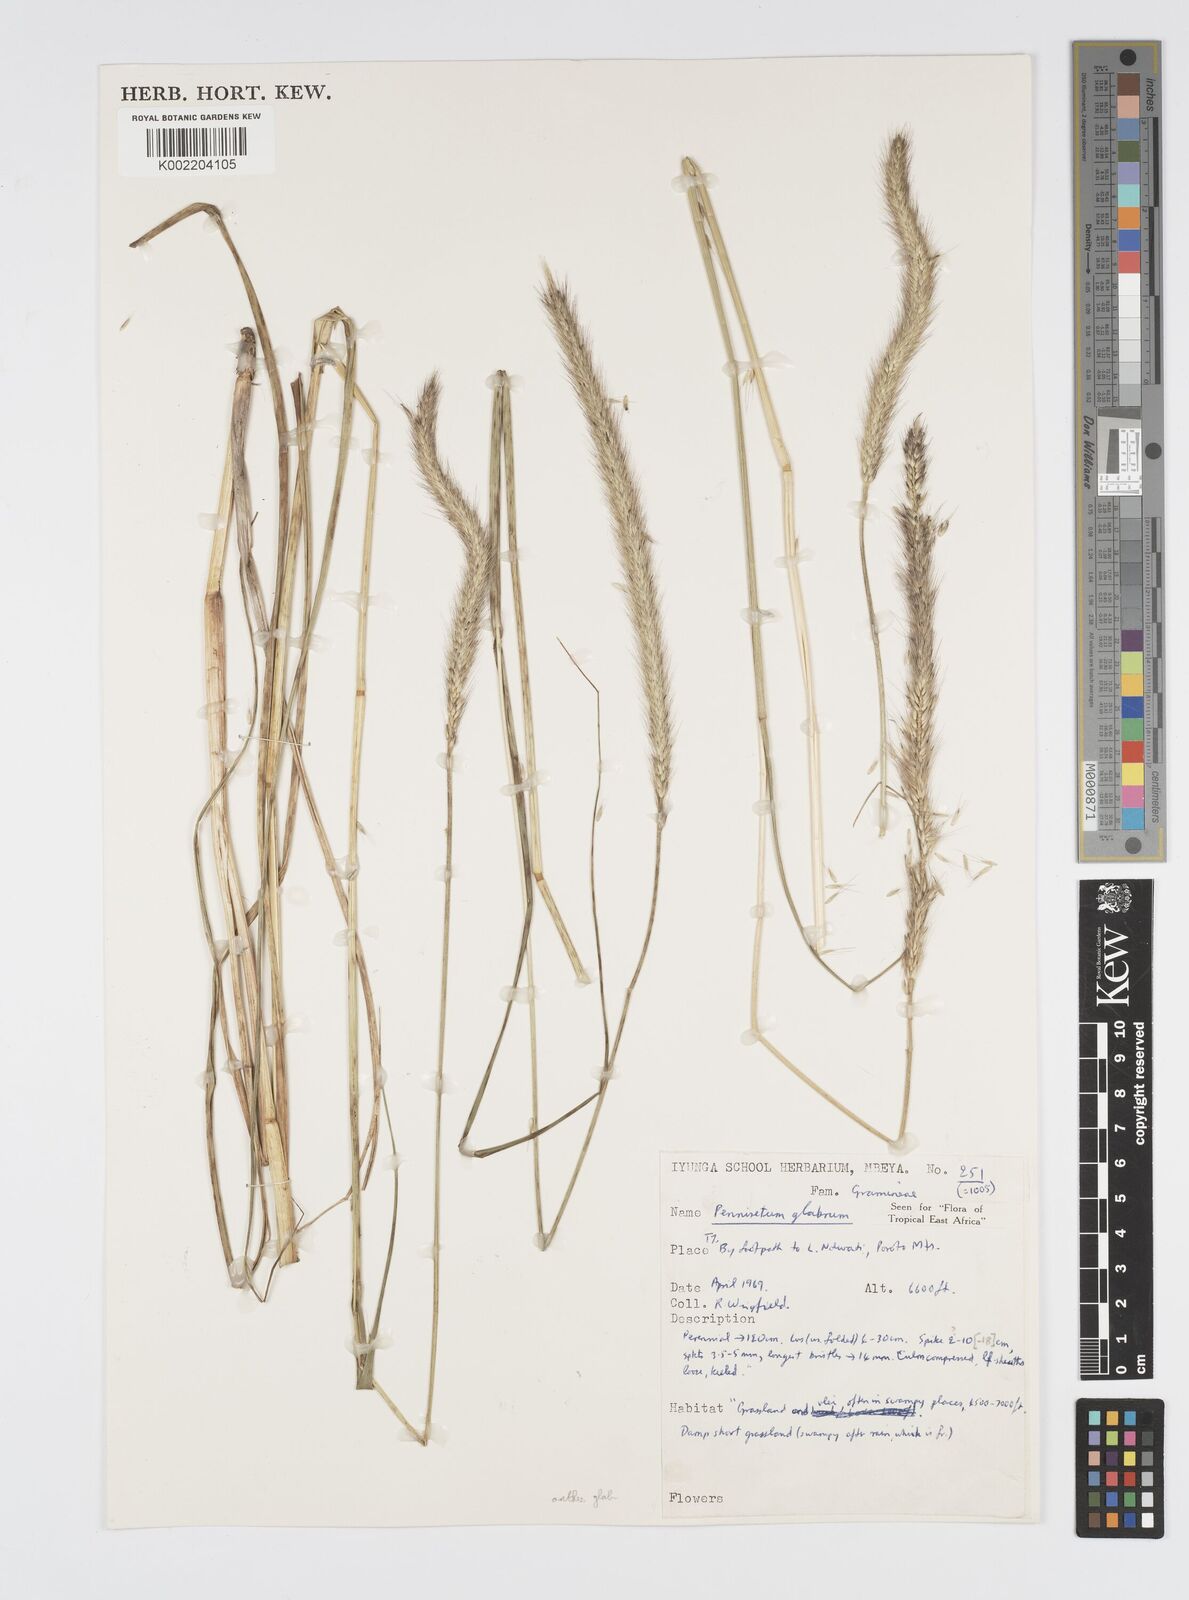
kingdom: Plantae
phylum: Tracheophyta
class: Liliopsida
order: Poales
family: Poaceae
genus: Cenchrus
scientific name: Cenchrus geniculatus
